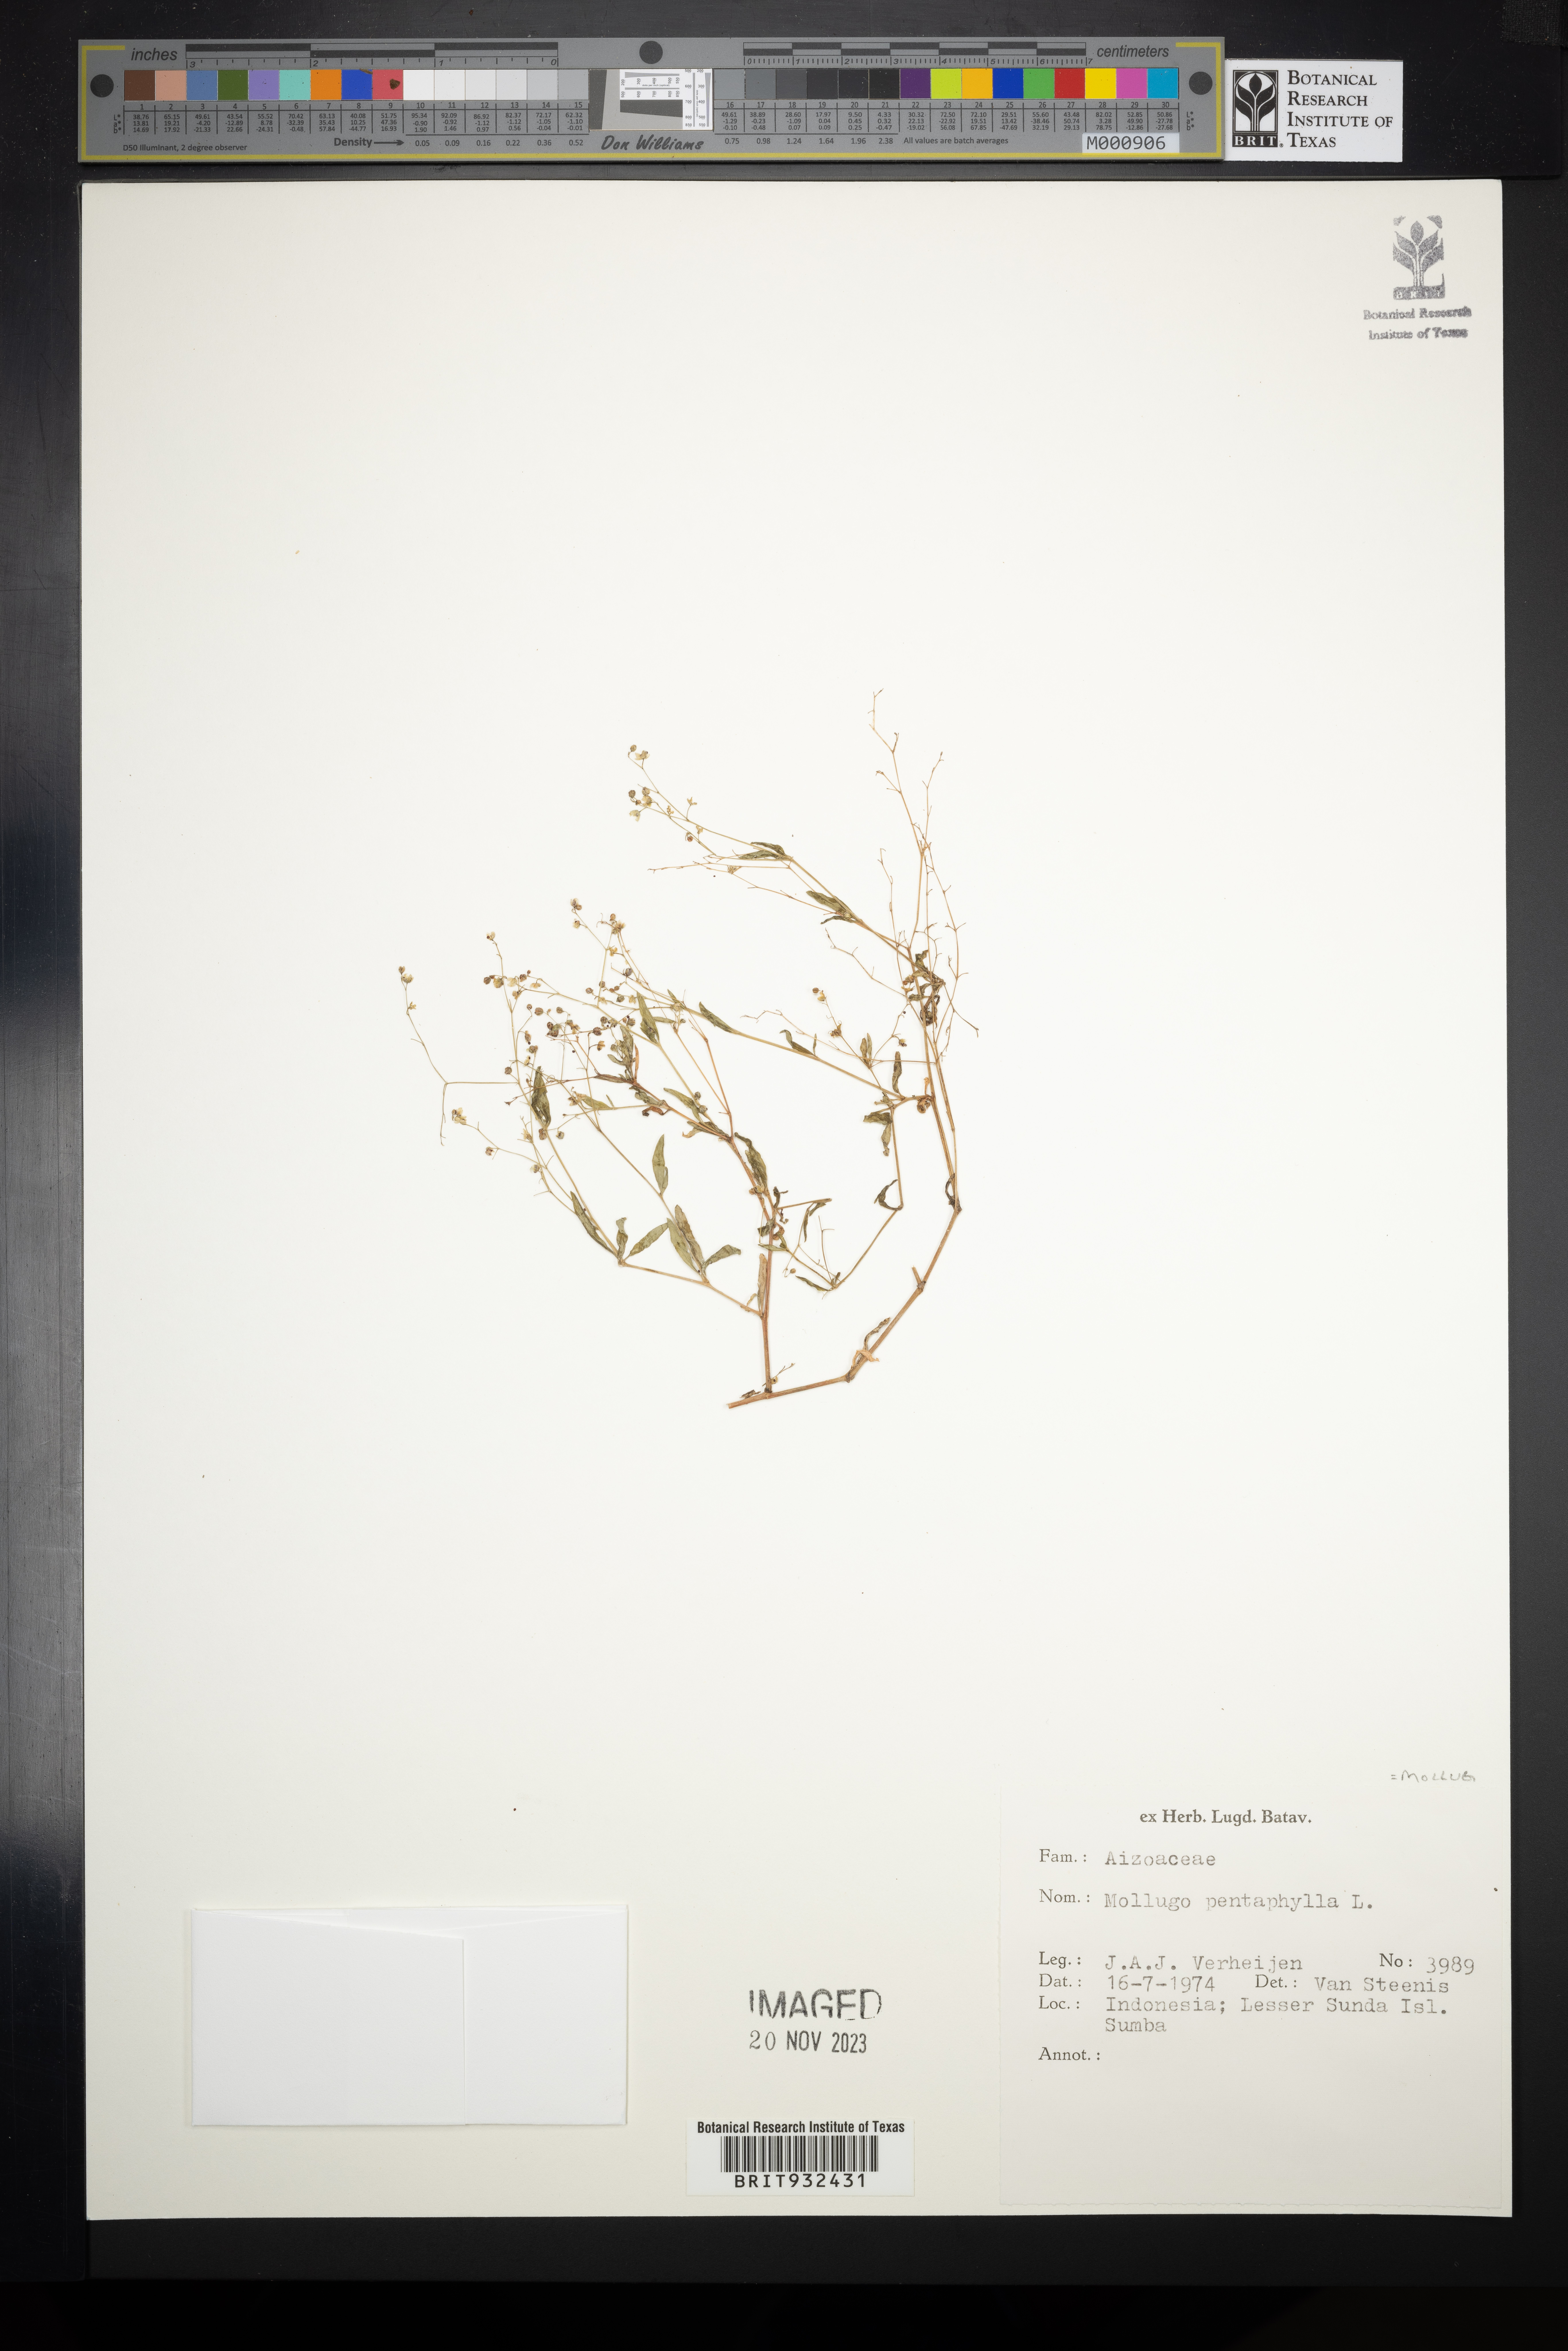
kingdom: Plantae
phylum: Tracheophyta
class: Magnoliopsida
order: Caryophyllales
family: Molluginaceae
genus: Mollugo
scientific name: Mollugo
